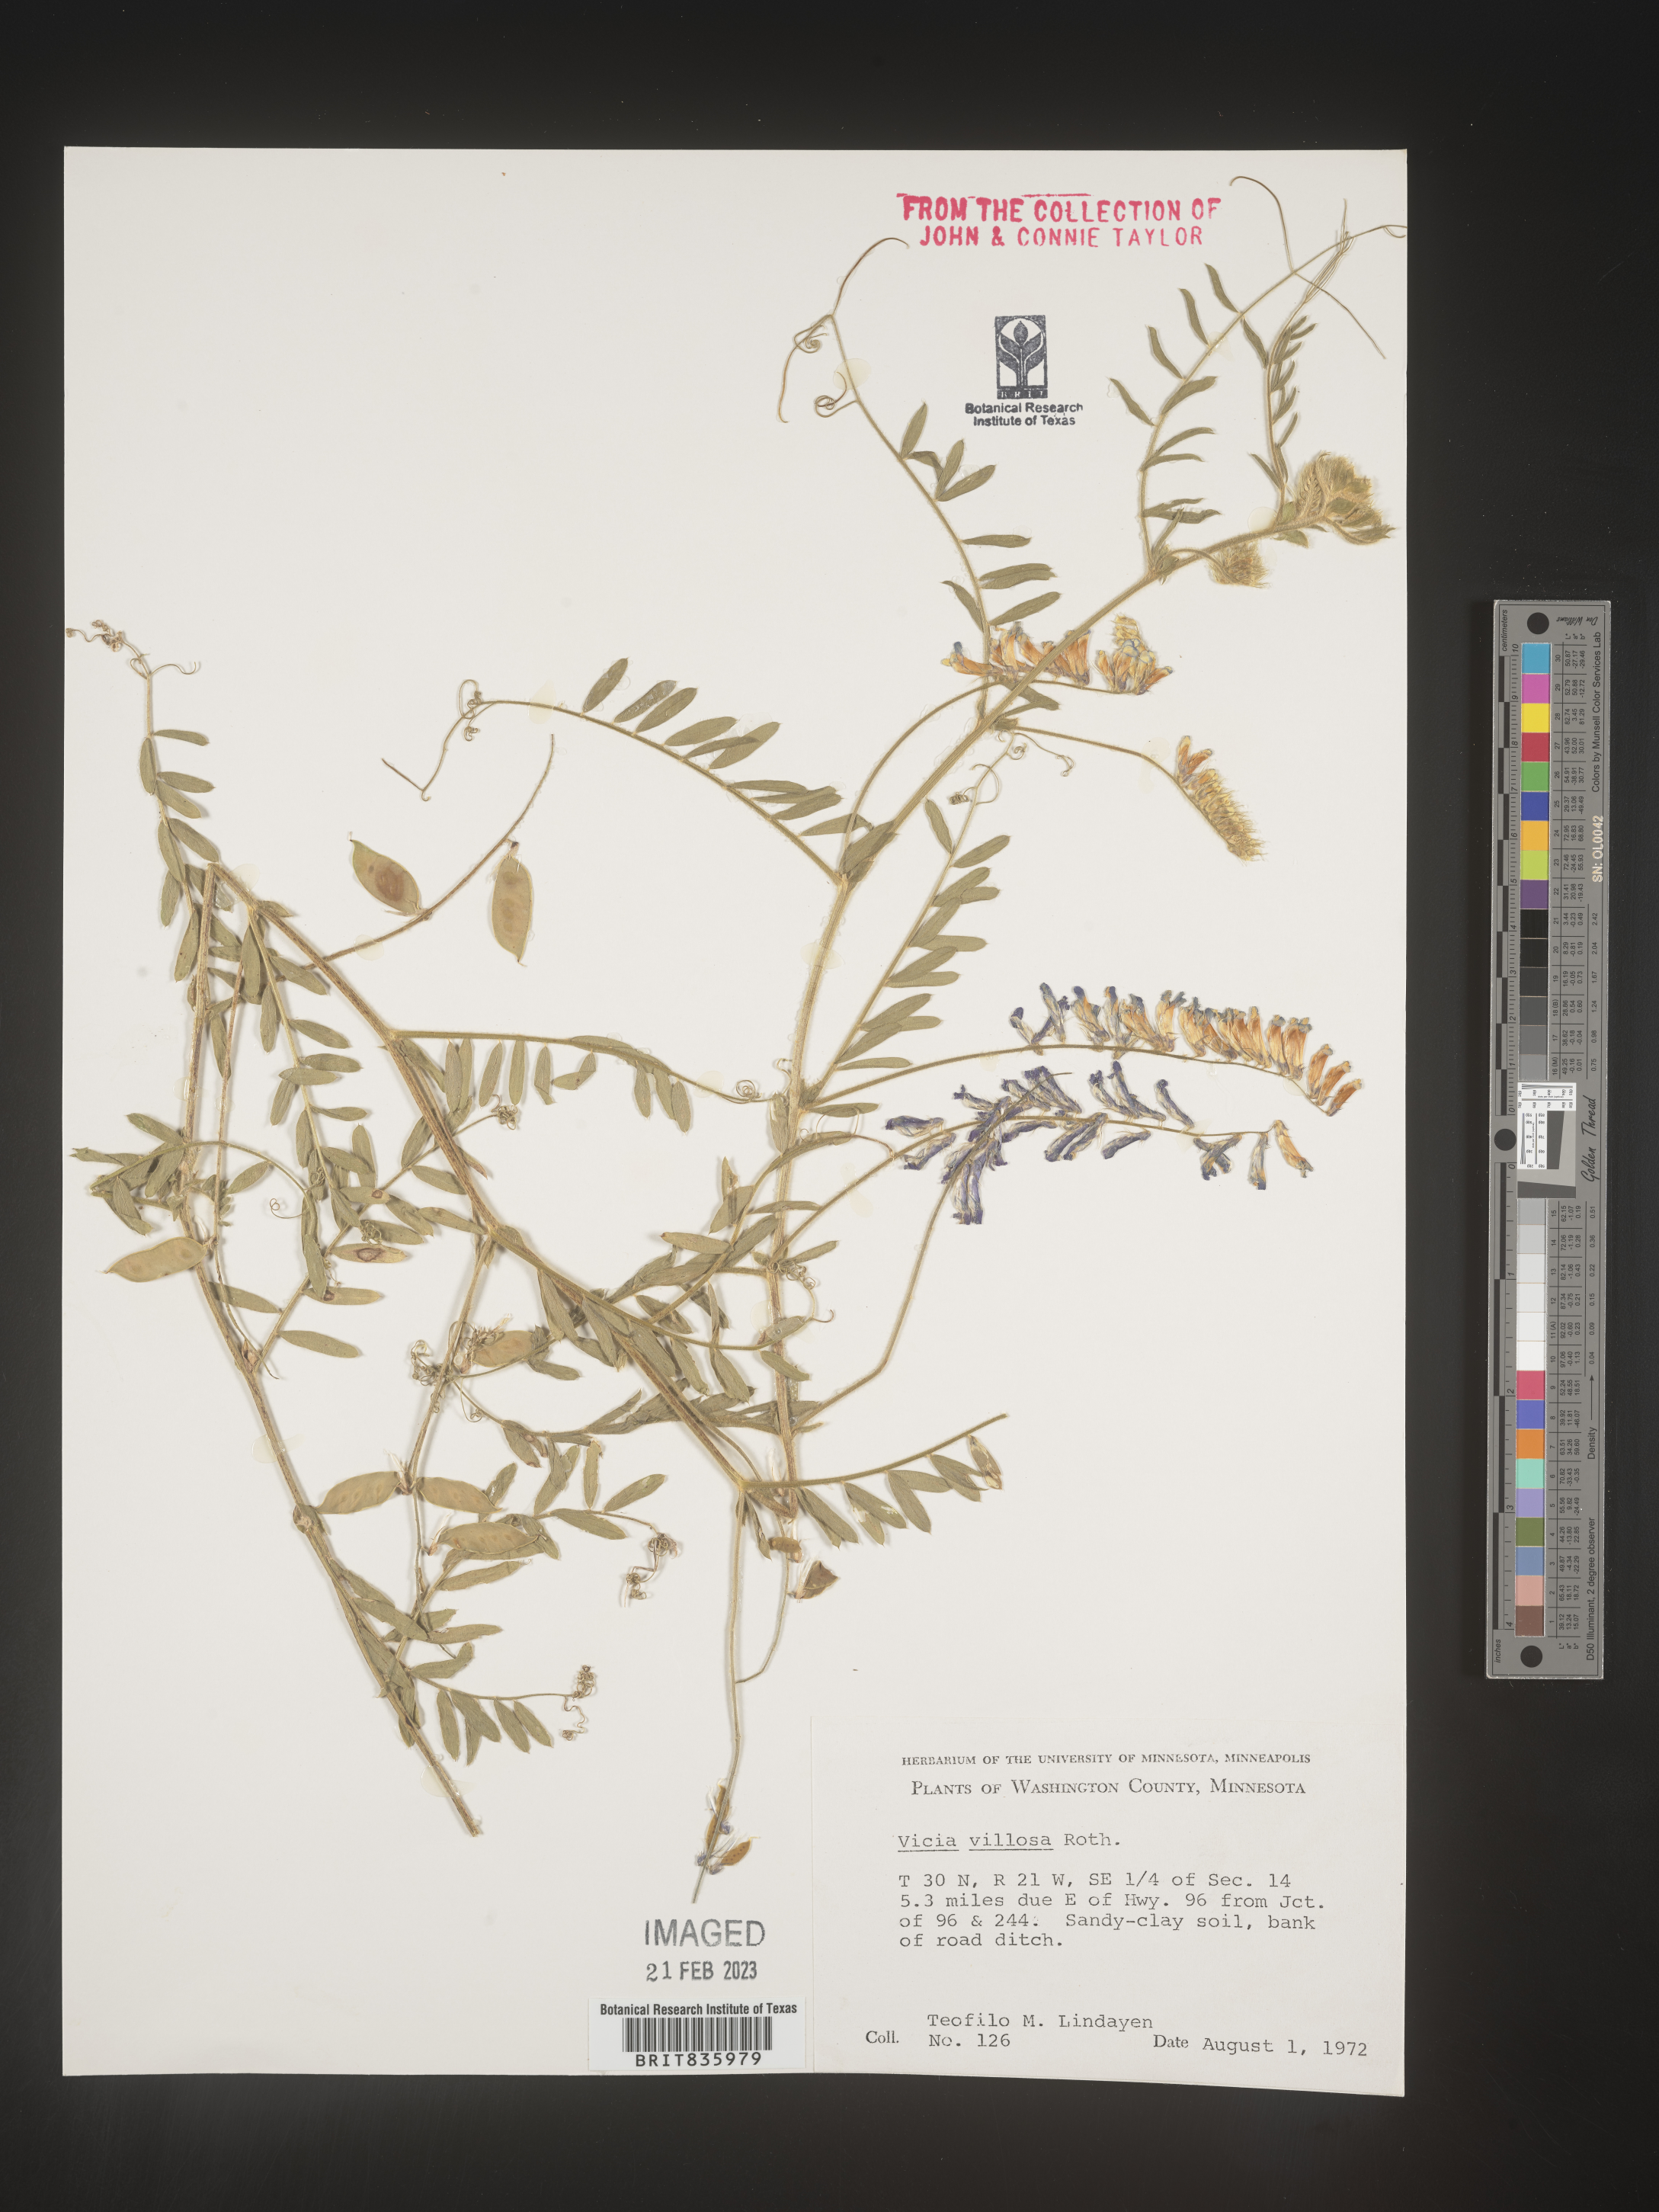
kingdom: Plantae
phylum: Tracheophyta
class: Magnoliopsida
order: Fabales
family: Fabaceae
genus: Vicia
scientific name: Vicia villosa
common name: Fodder vetch
